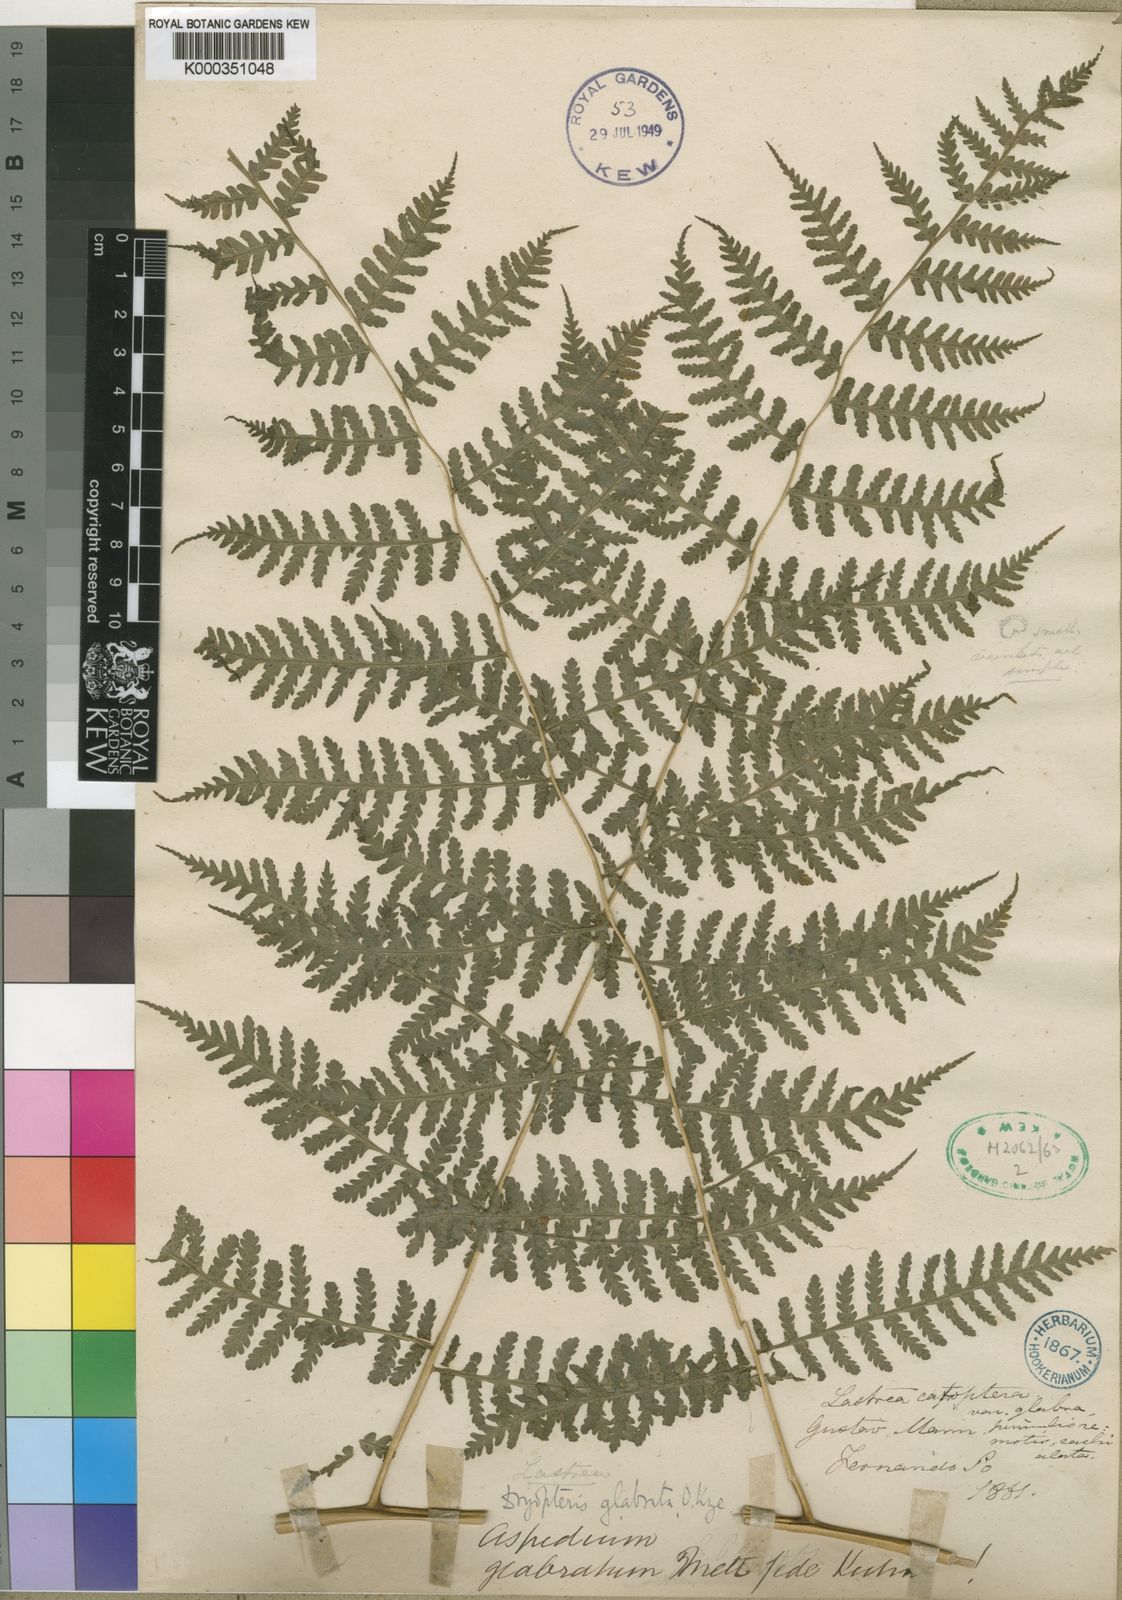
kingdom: Plantae
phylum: Tracheophyta
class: Polypodiopsida
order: Polypodiales
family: Athyriaceae
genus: Deparia
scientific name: Deparia boryana
